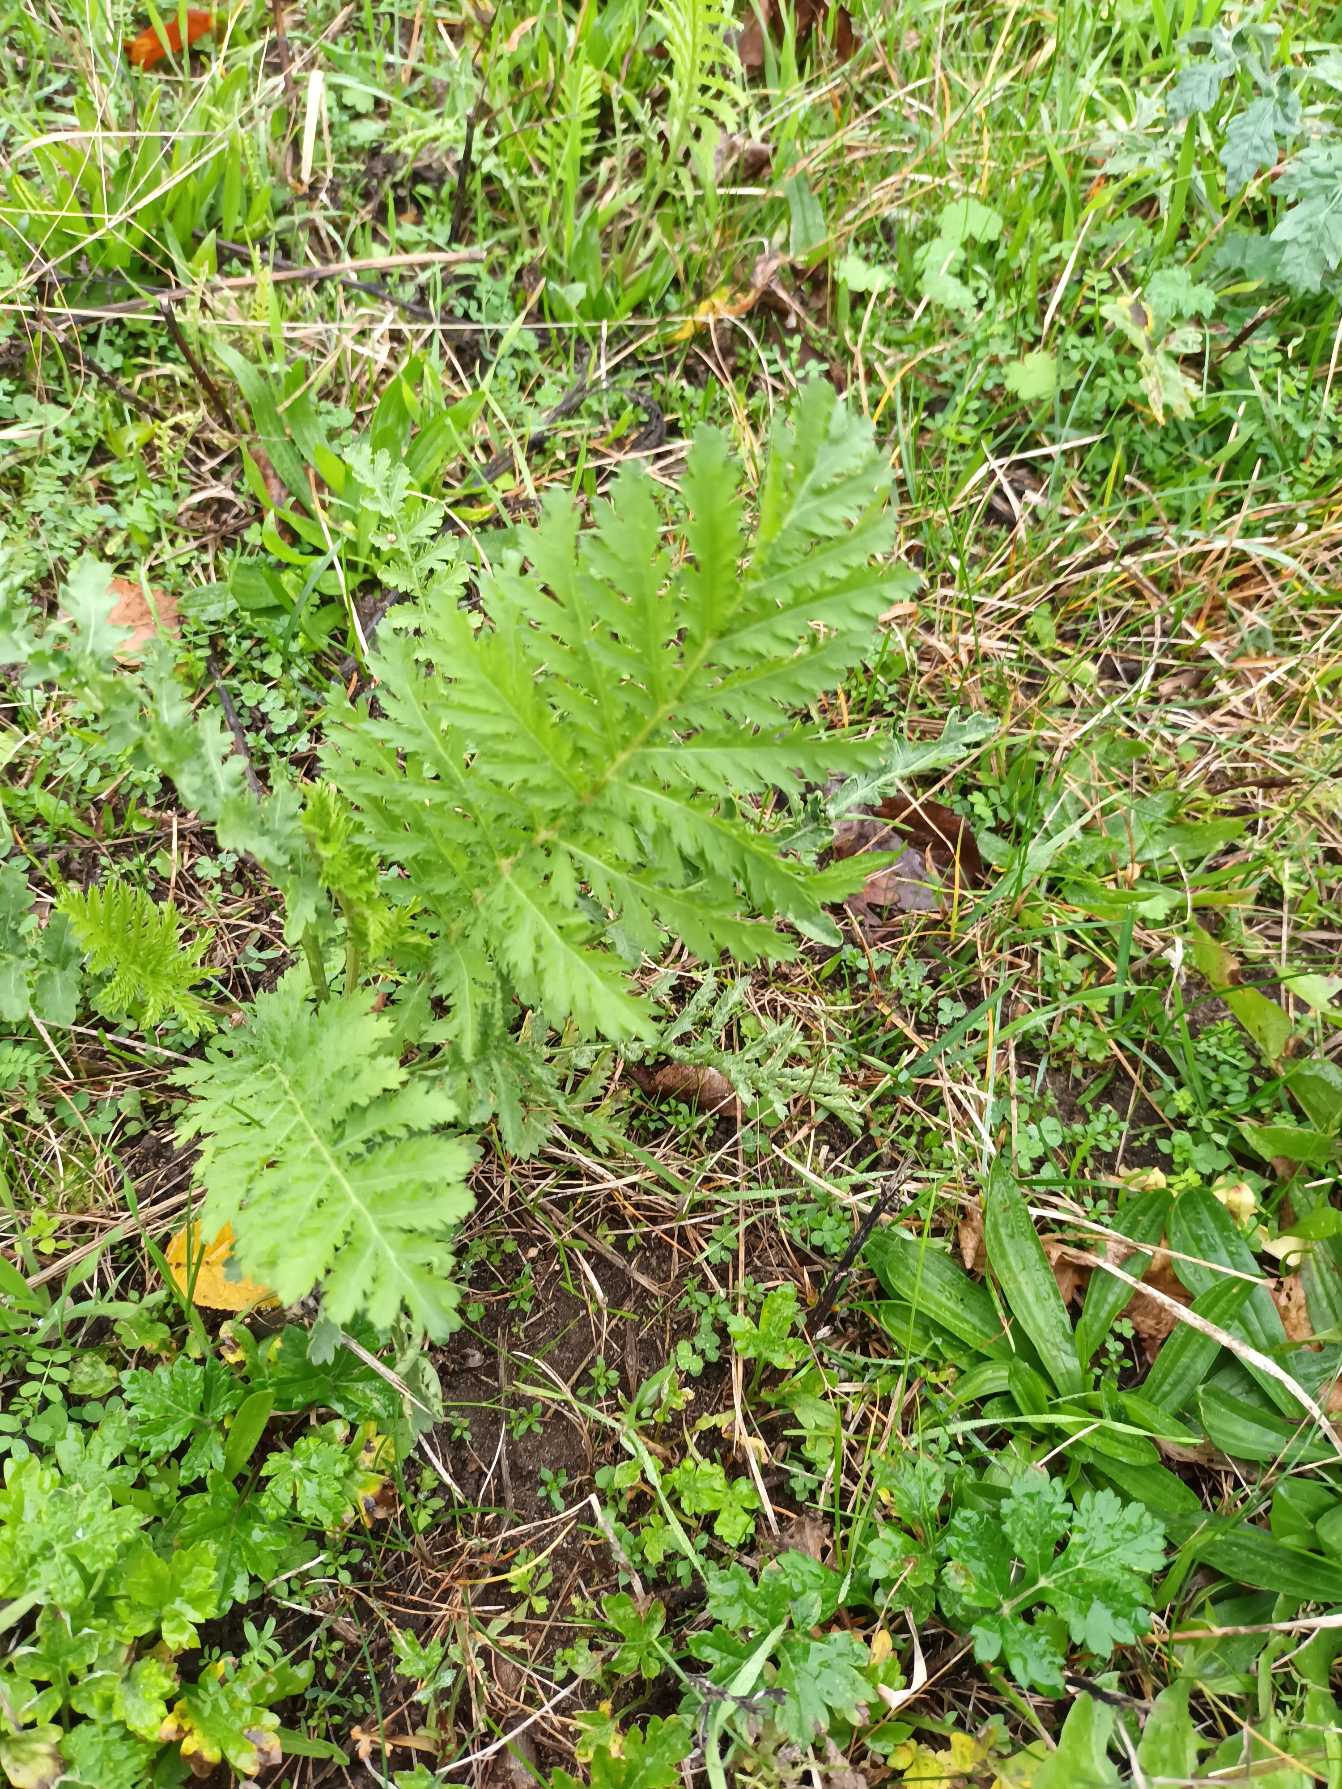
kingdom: Plantae
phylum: Tracheophyta
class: Magnoliopsida
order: Asterales
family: Asteraceae
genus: Tanacetum
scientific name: Tanacetum vulgare
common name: Rejnfan
